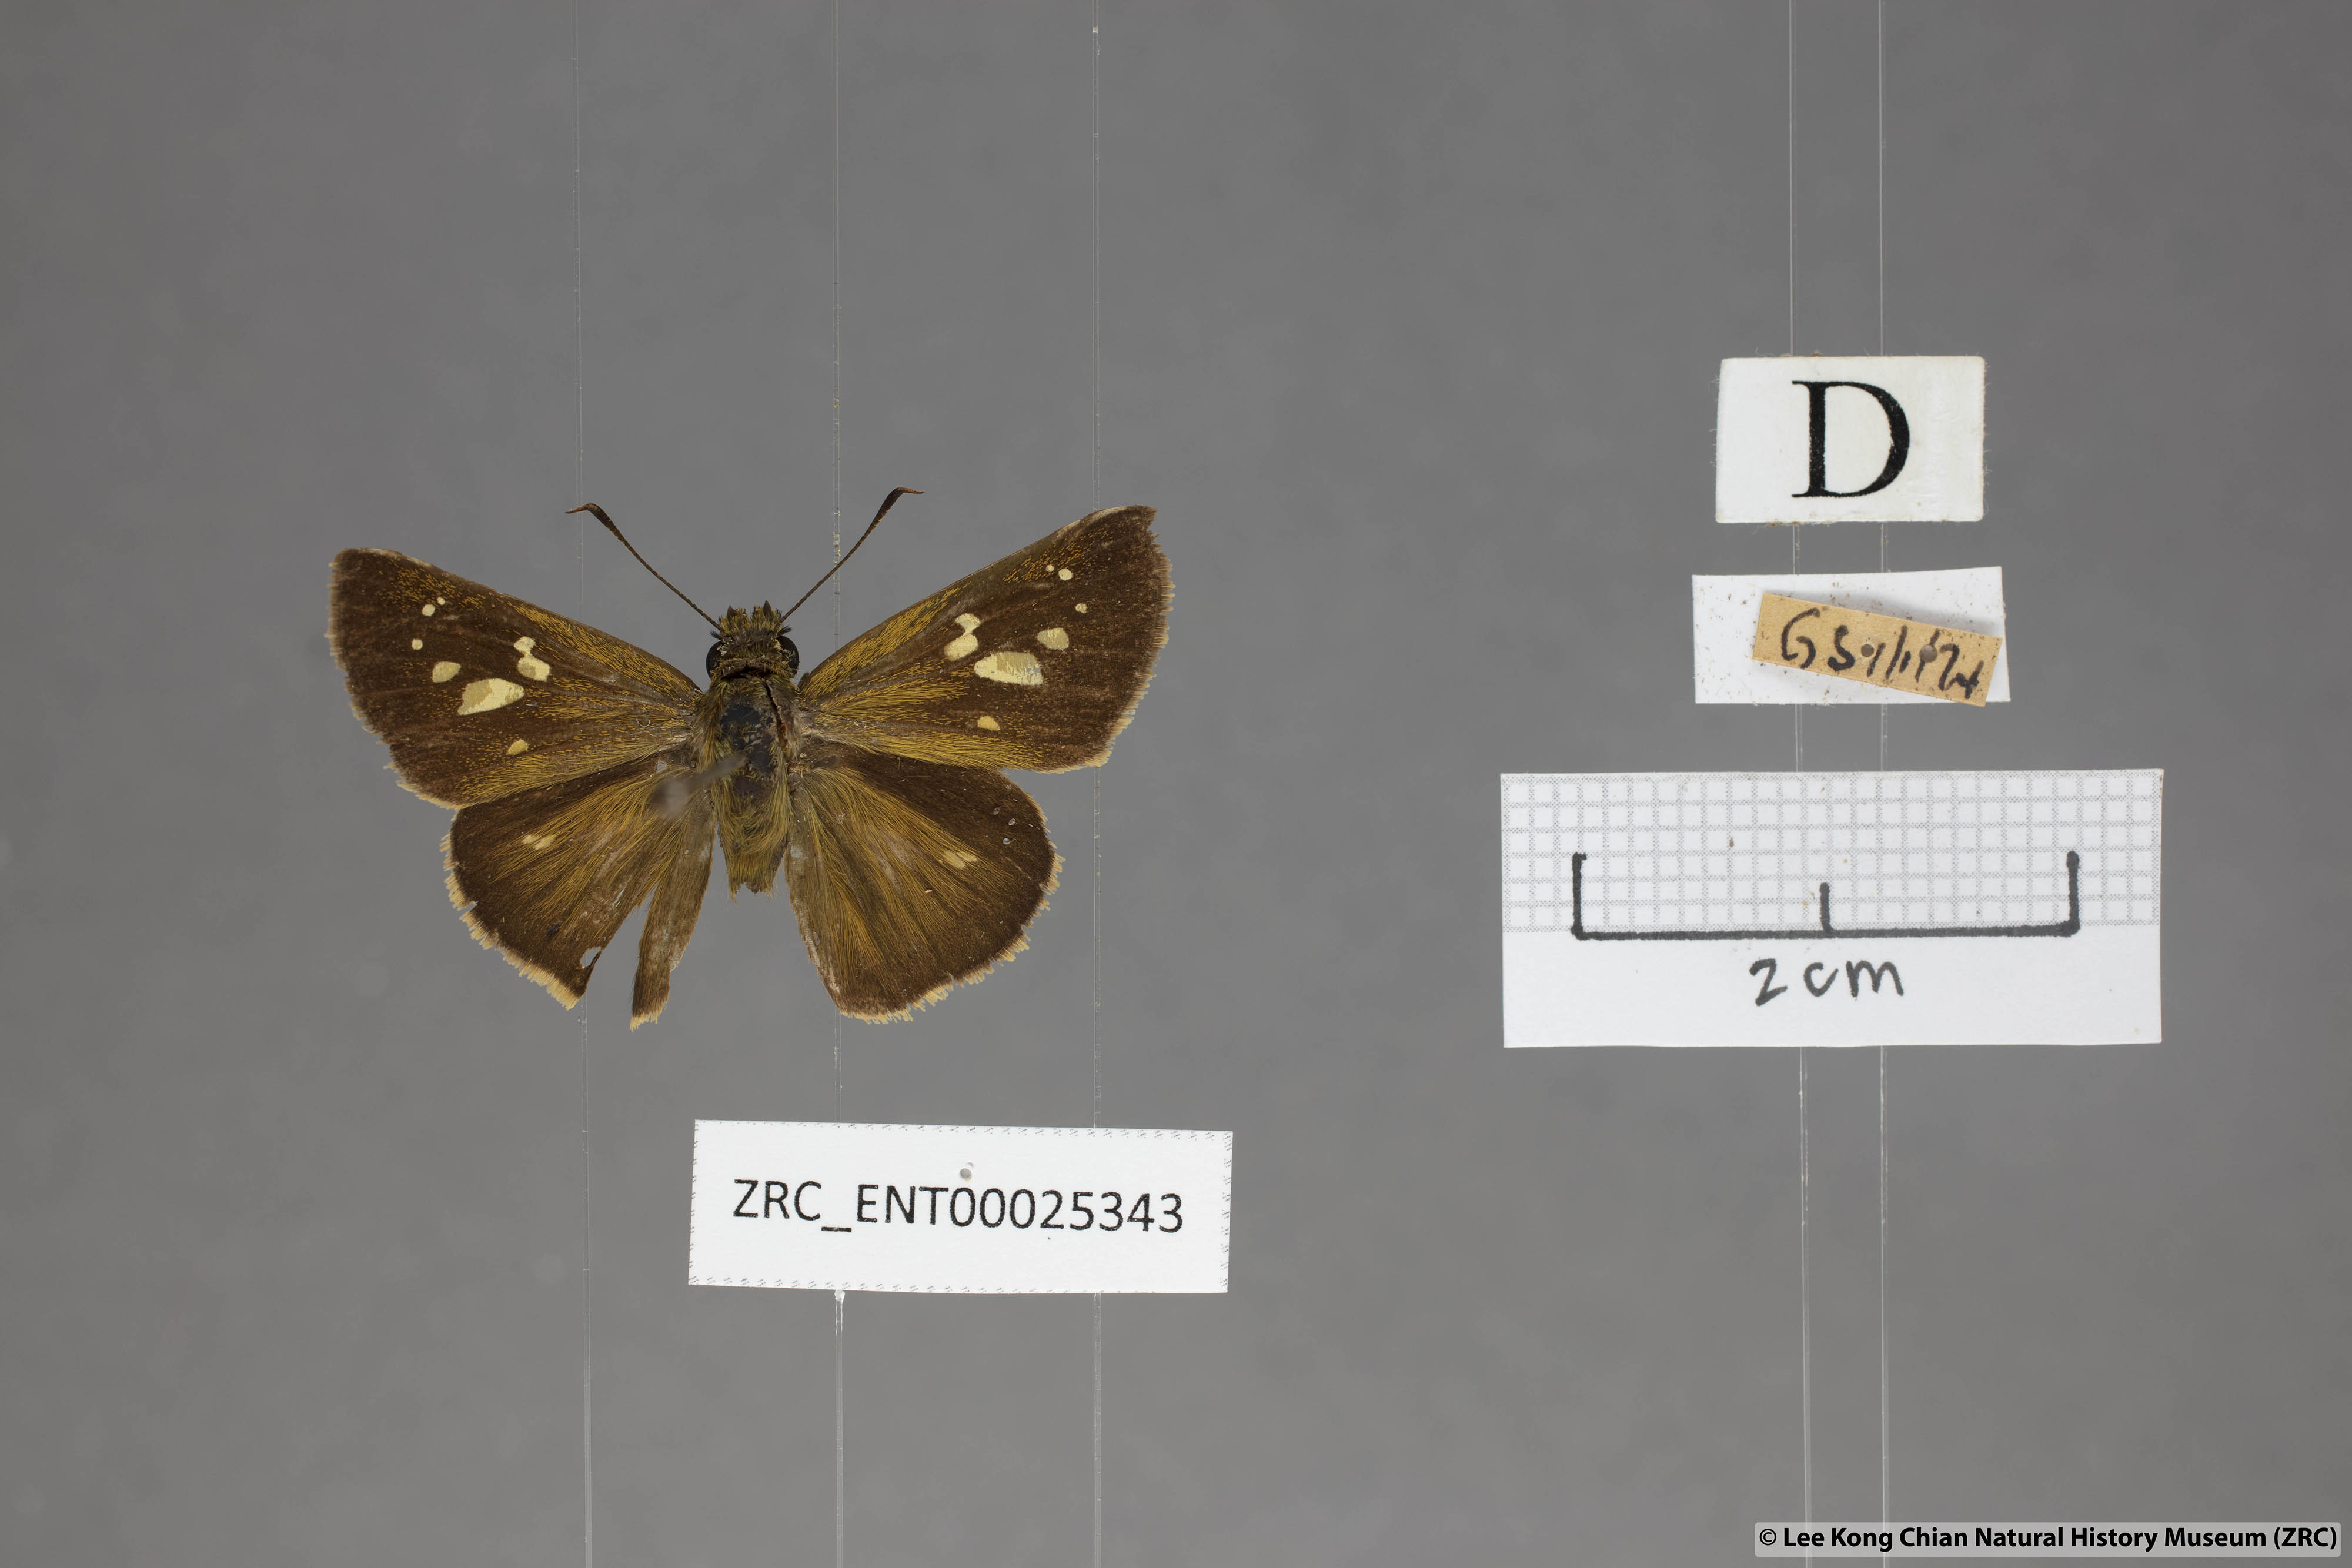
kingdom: Animalia
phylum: Arthropoda
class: Insecta
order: Lepidoptera
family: Hesperiidae
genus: Polytremis
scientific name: Polytremis lubricans
